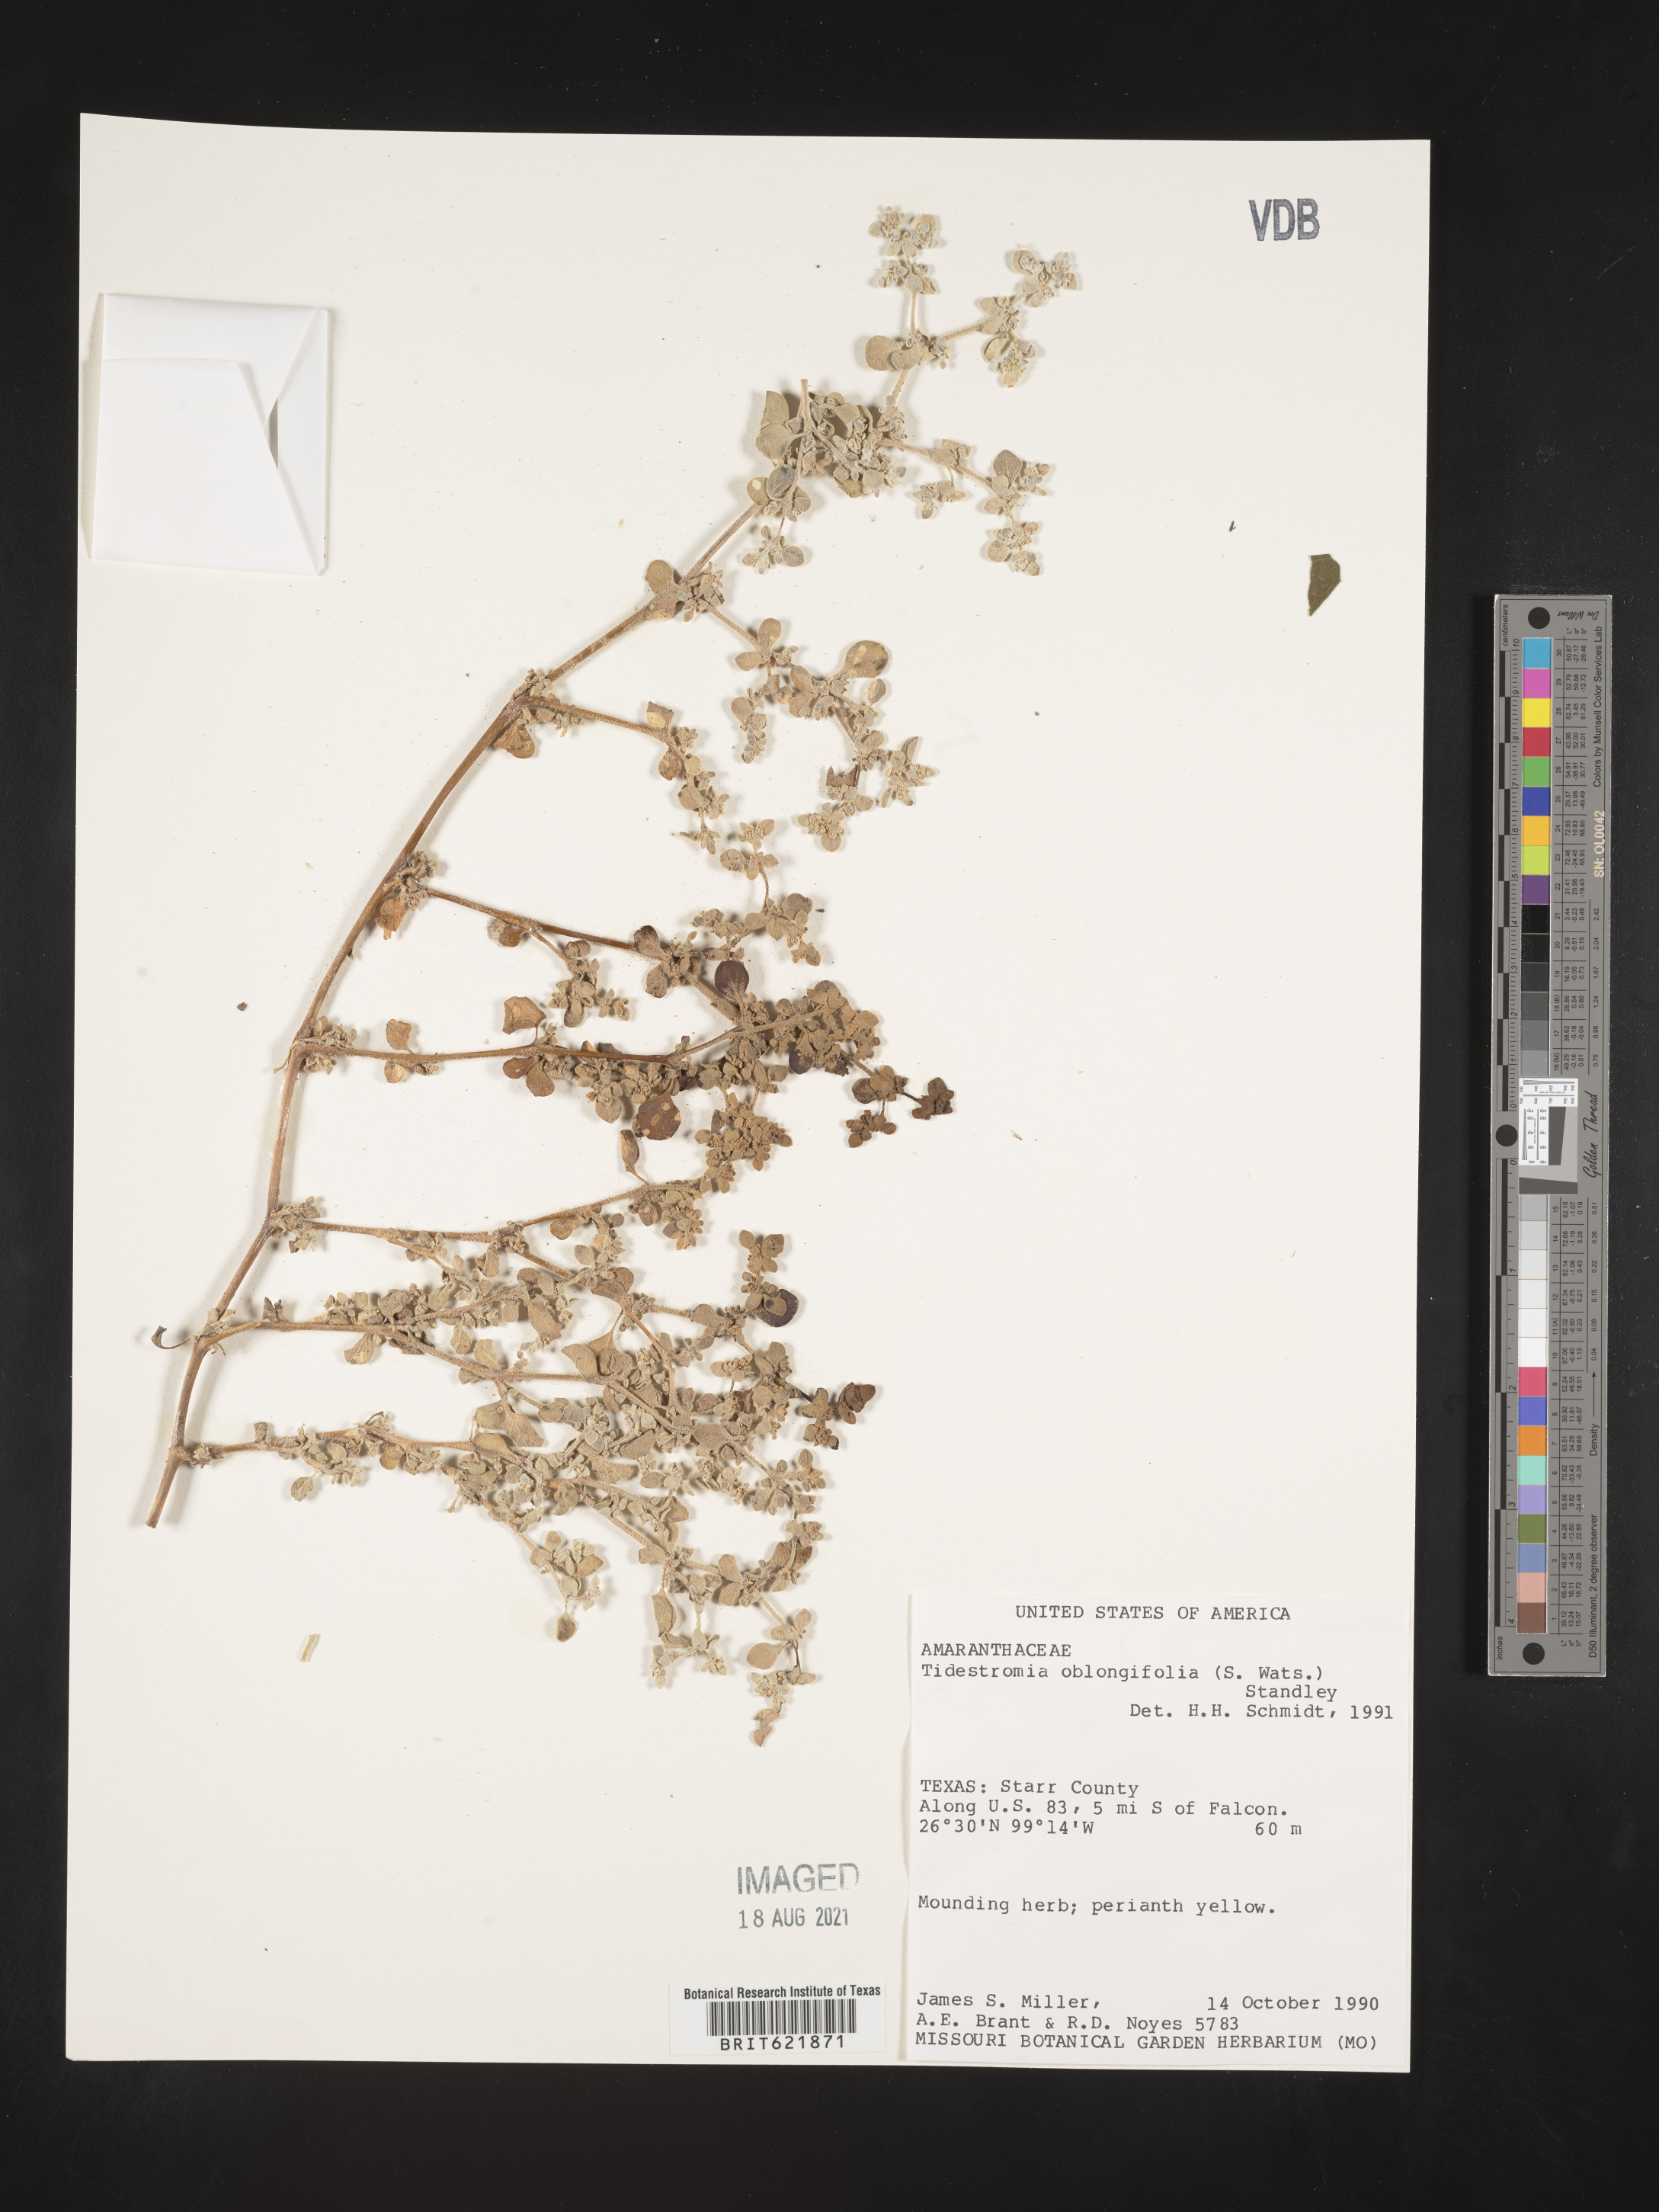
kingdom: Plantae
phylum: Tracheophyta
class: Magnoliopsida
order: Caryophyllales
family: Amaranthaceae
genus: Tidestromia
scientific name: Tidestromia suffruticosa
